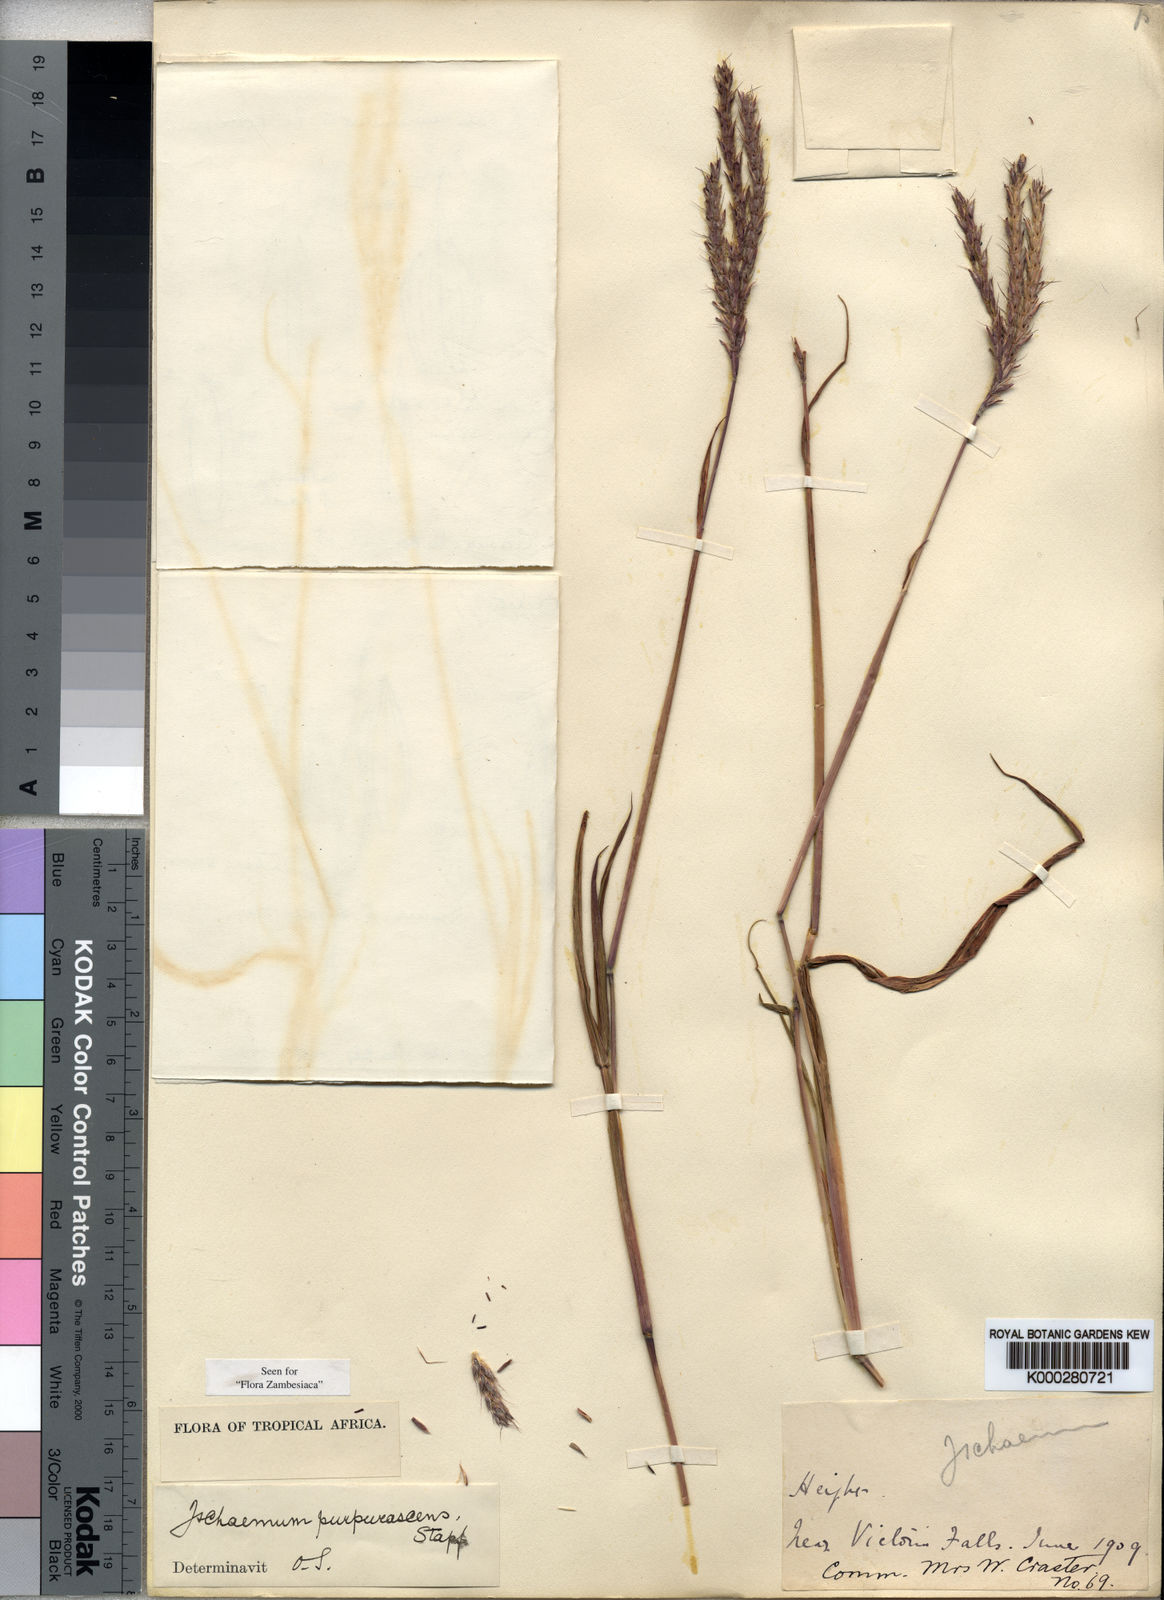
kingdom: Plantae
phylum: Tracheophyta
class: Liliopsida
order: Poales
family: Poaceae
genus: Ischaemum
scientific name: Ischaemum polystachyum
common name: Paddle grass
